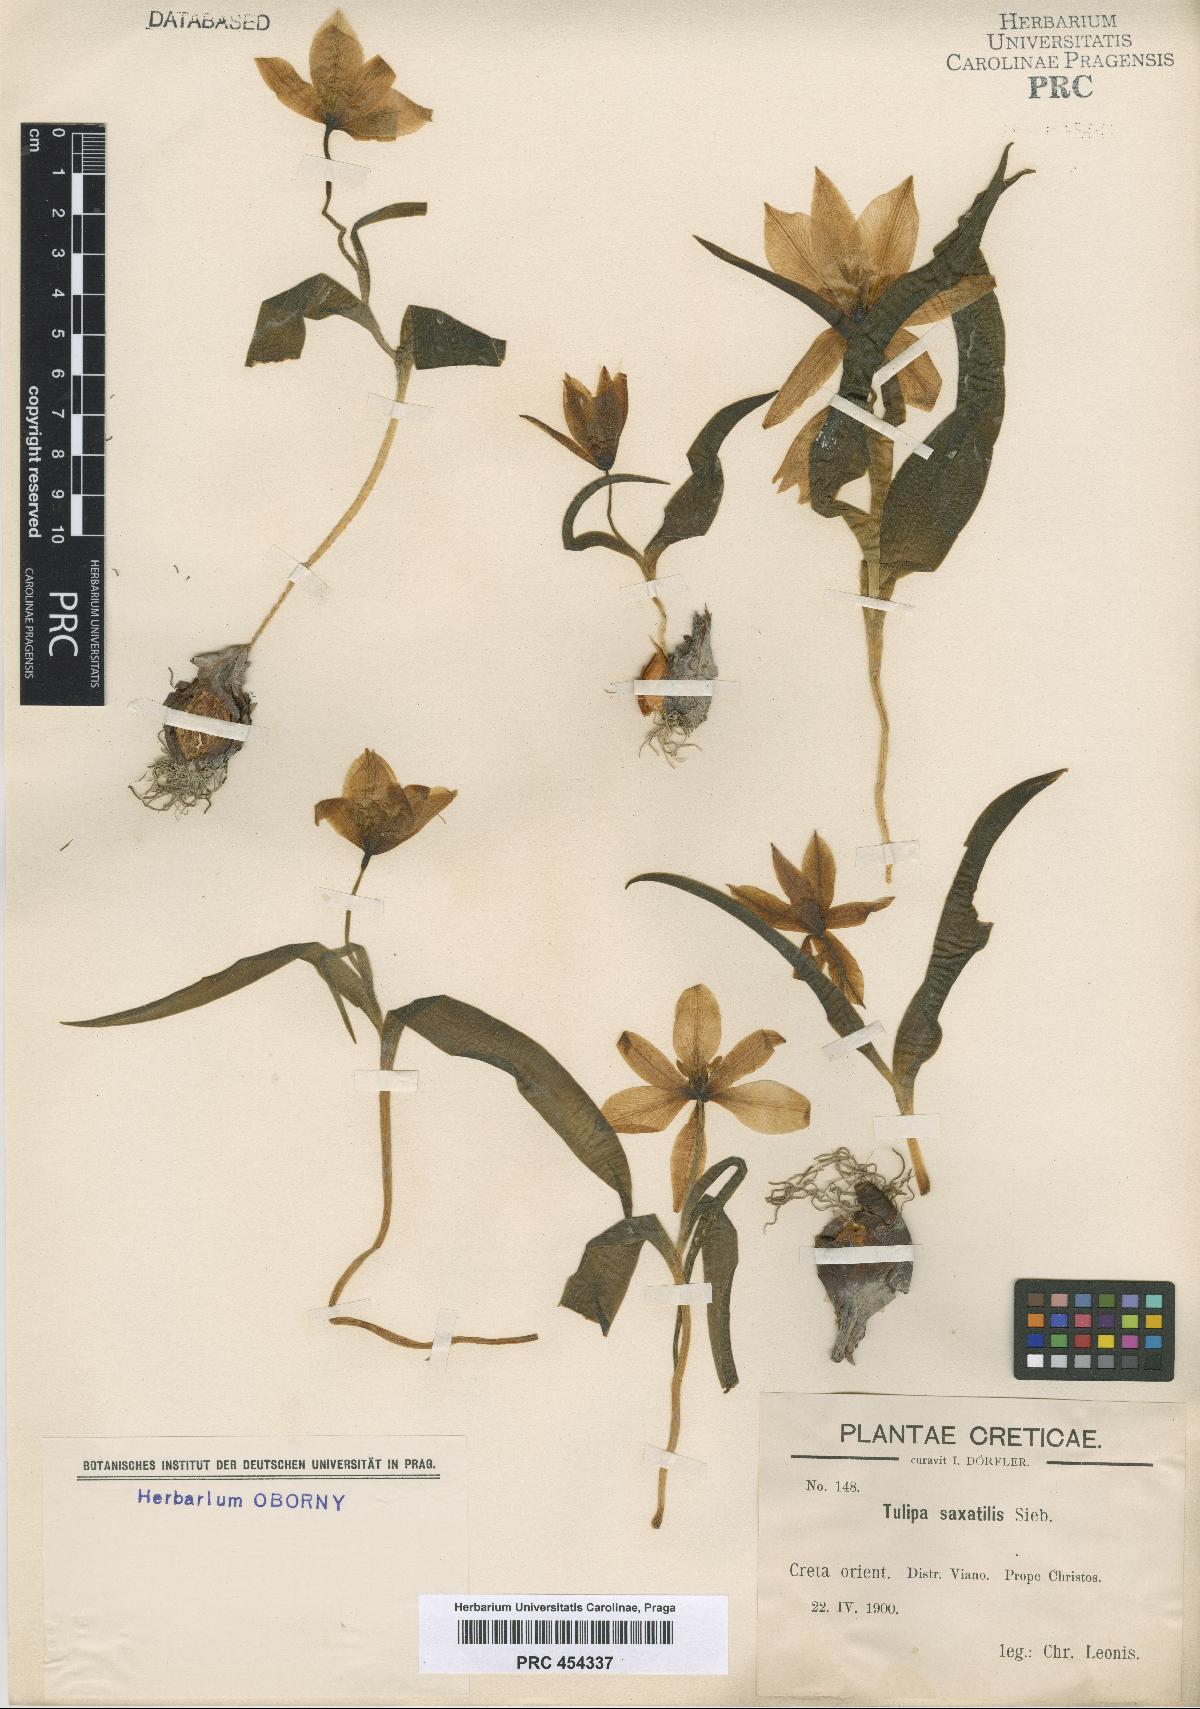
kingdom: Plantae
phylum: Tracheophyta
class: Liliopsida
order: Liliales
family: Liliaceae
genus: Tulipa
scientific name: Tulipa saxatilis
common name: Cretan tulip
